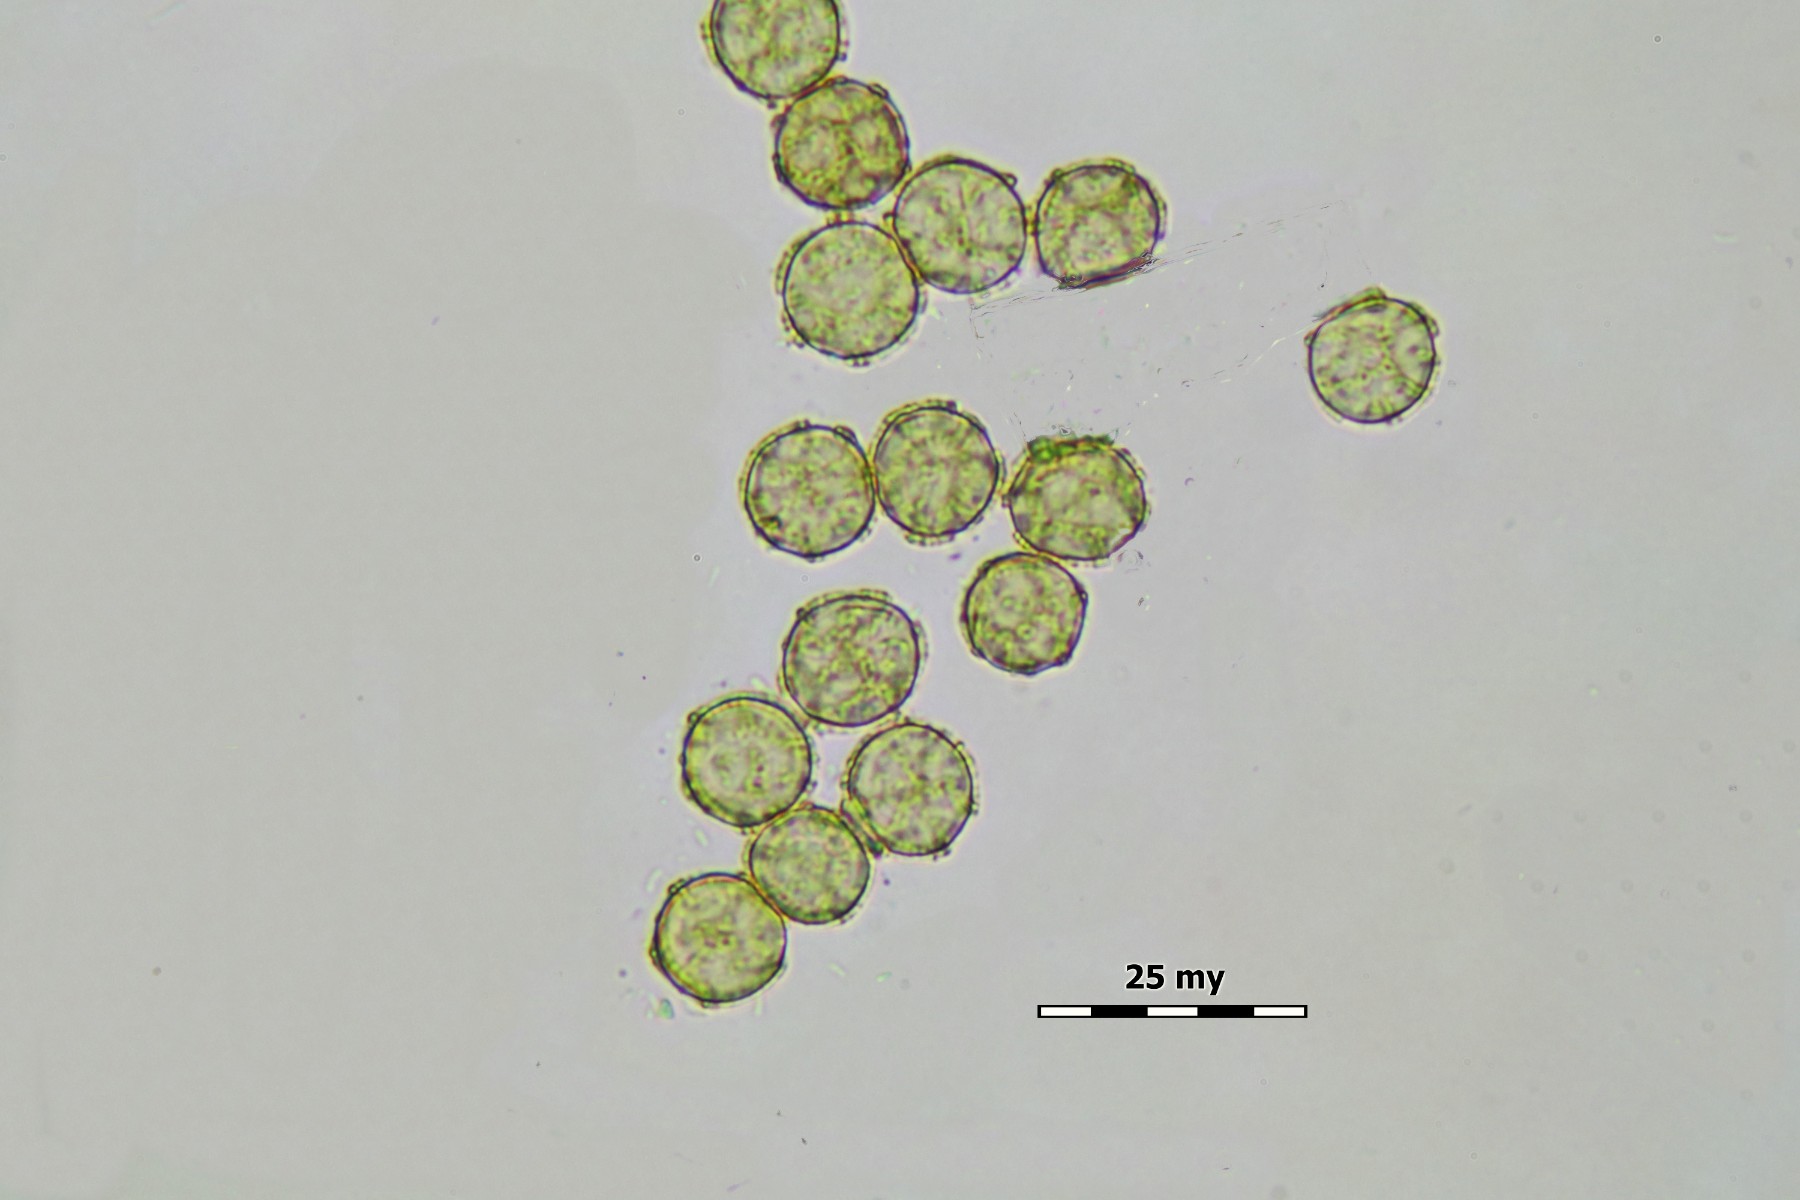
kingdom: Protozoa
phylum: Mycetozoa
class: Myxomycetes
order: Trichiales
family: Trichiaceae
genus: Oligonema
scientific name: Oligonema persimile
